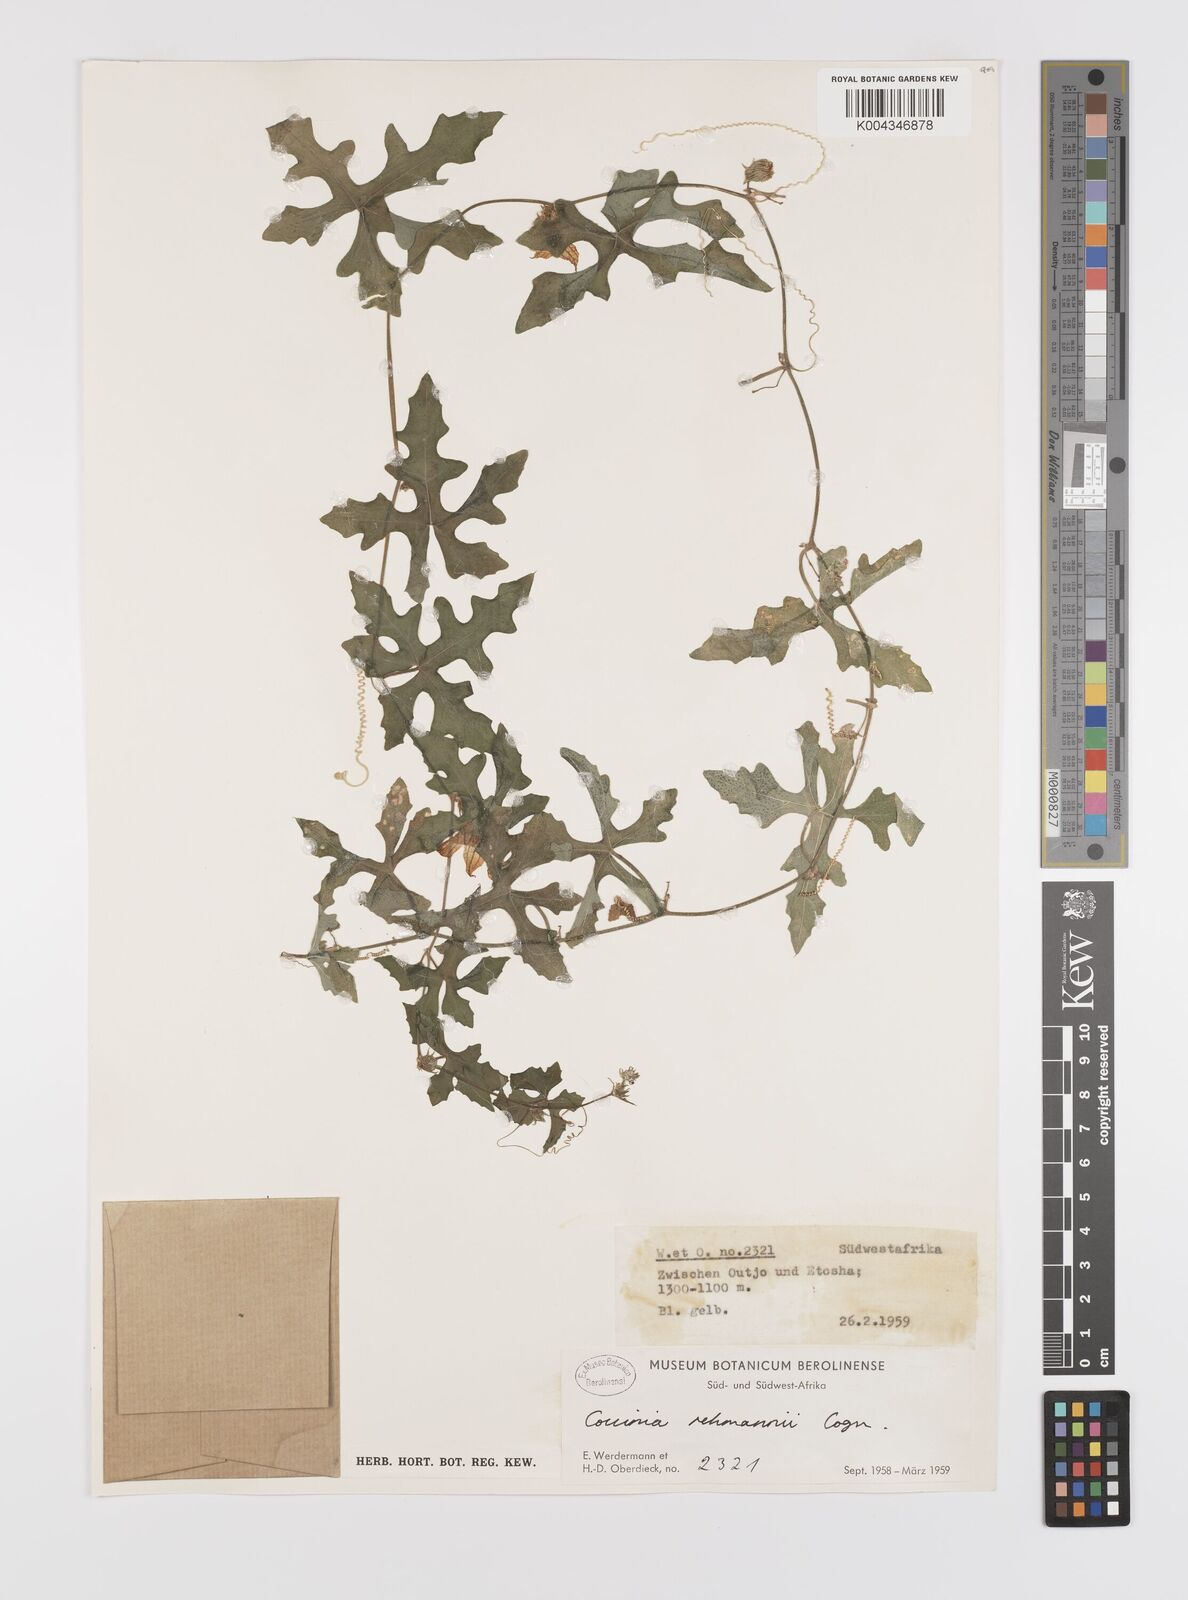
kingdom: Plantae
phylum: Tracheophyta
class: Magnoliopsida
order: Cucurbitales
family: Cucurbitaceae
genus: Coccinia
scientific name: Coccinia rehmannii
